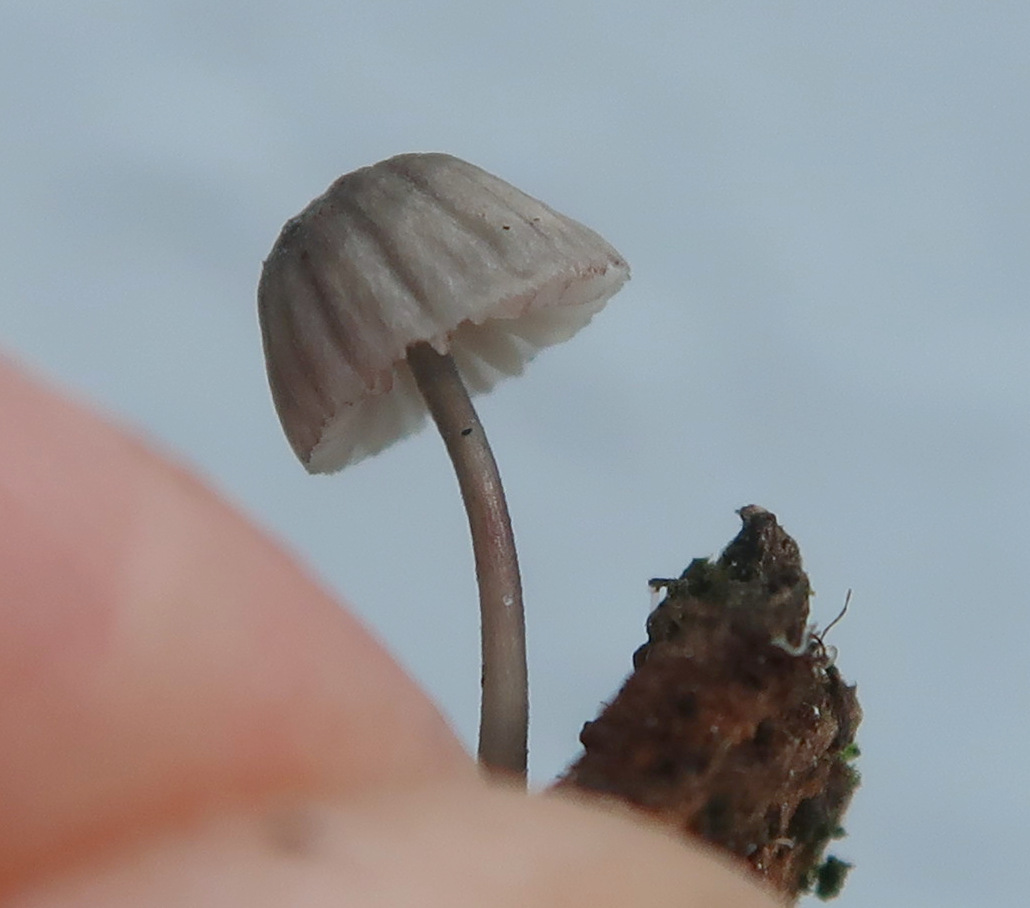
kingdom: Fungi
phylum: Basidiomycota
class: Agaricomycetes
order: Agaricales
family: Mycenaceae
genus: Mycena
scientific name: Mycena pseudocorticola
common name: gråblå bark-huesvamp
